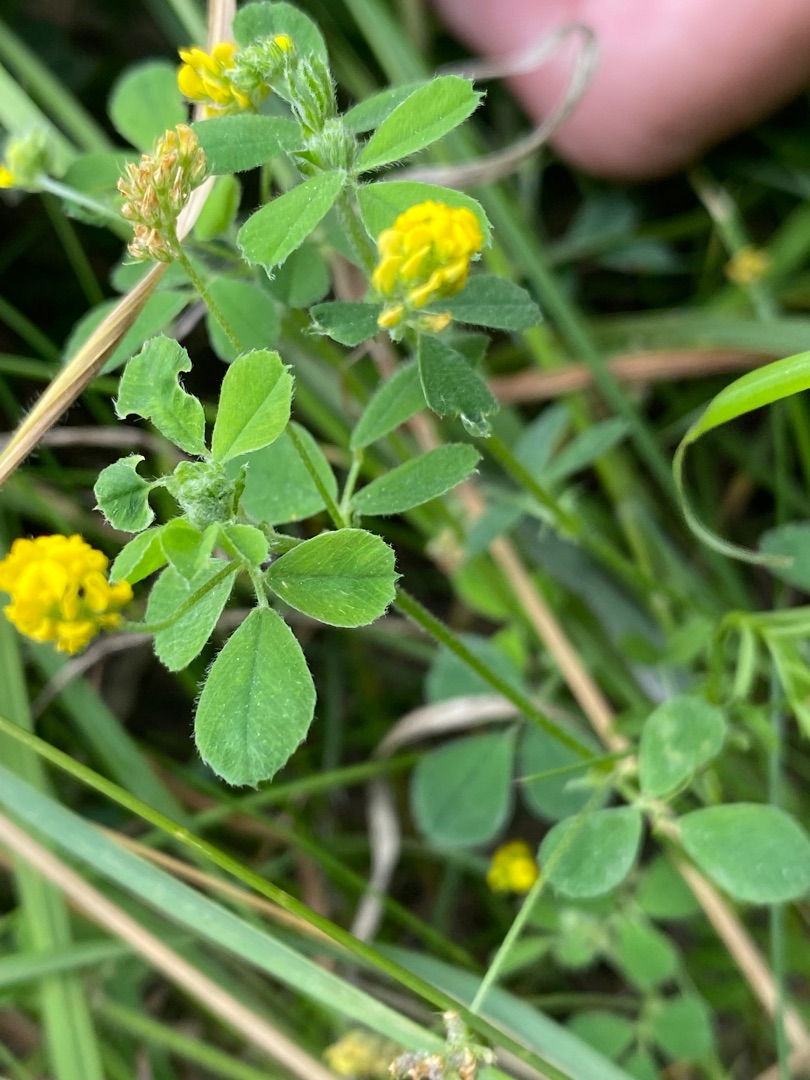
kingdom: Plantae
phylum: Tracheophyta
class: Magnoliopsida
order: Fabales
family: Fabaceae
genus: Medicago
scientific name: Medicago lupulina
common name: Humle-sneglebælg
